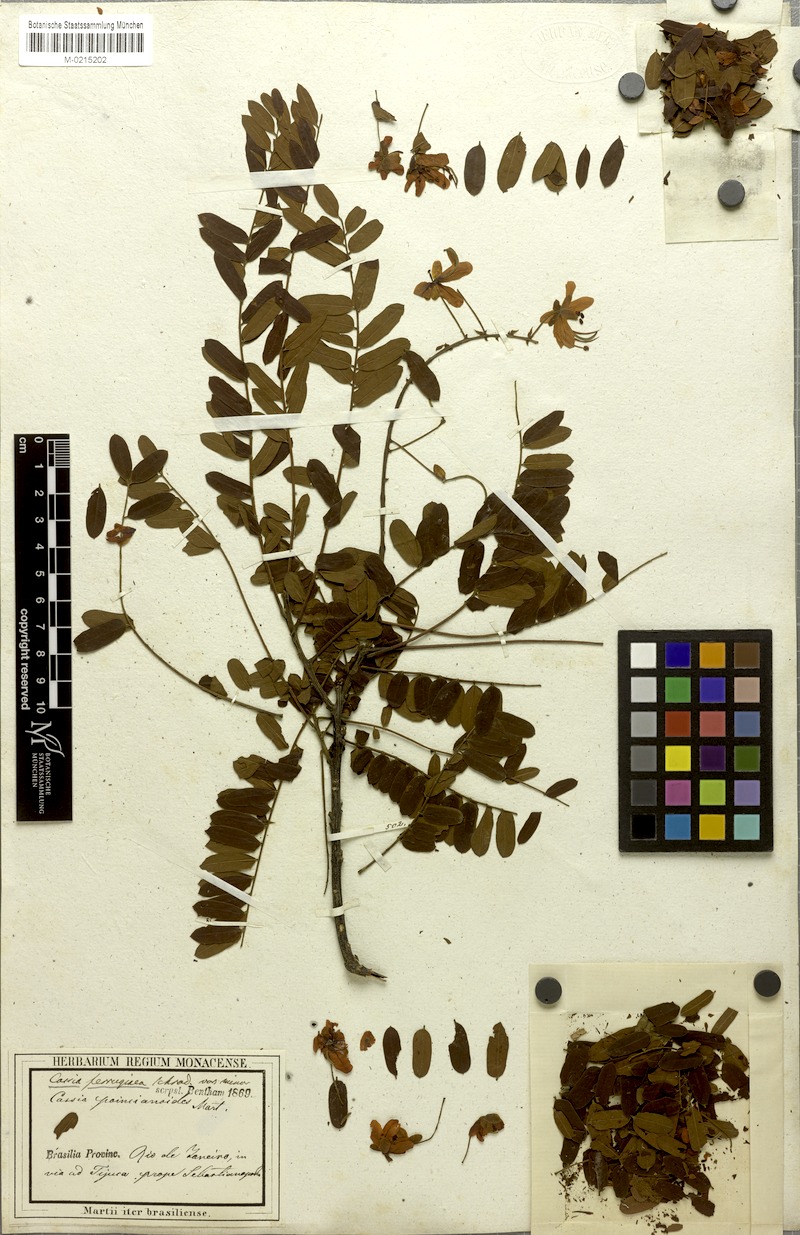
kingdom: Plantae
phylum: Tracheophyta
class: Magnoliopsida
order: Fabales
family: Fabaceae
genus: Cassia
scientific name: Cassia ferruginea
